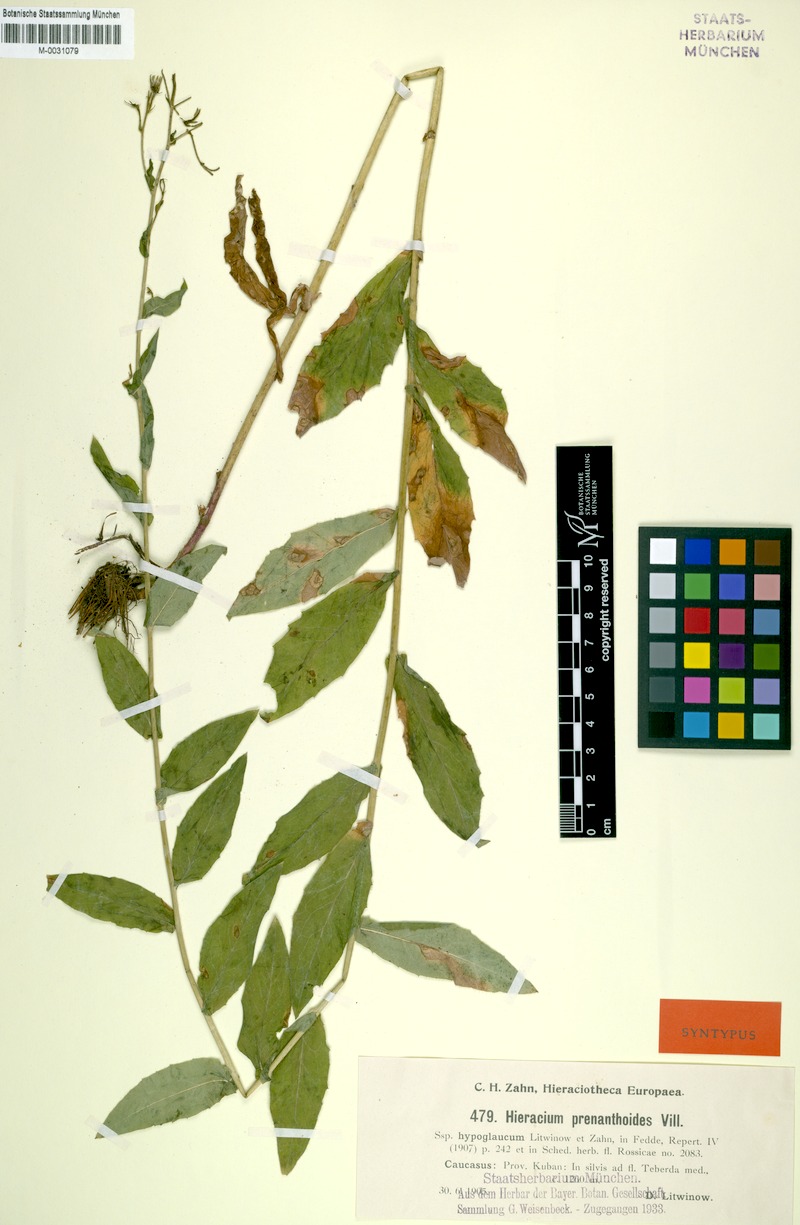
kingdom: Plantae
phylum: Tracheophyta
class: Magnoliopsida
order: Asterales
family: Asteraceae
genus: Hieracium
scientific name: Hieracium prenanthoides
